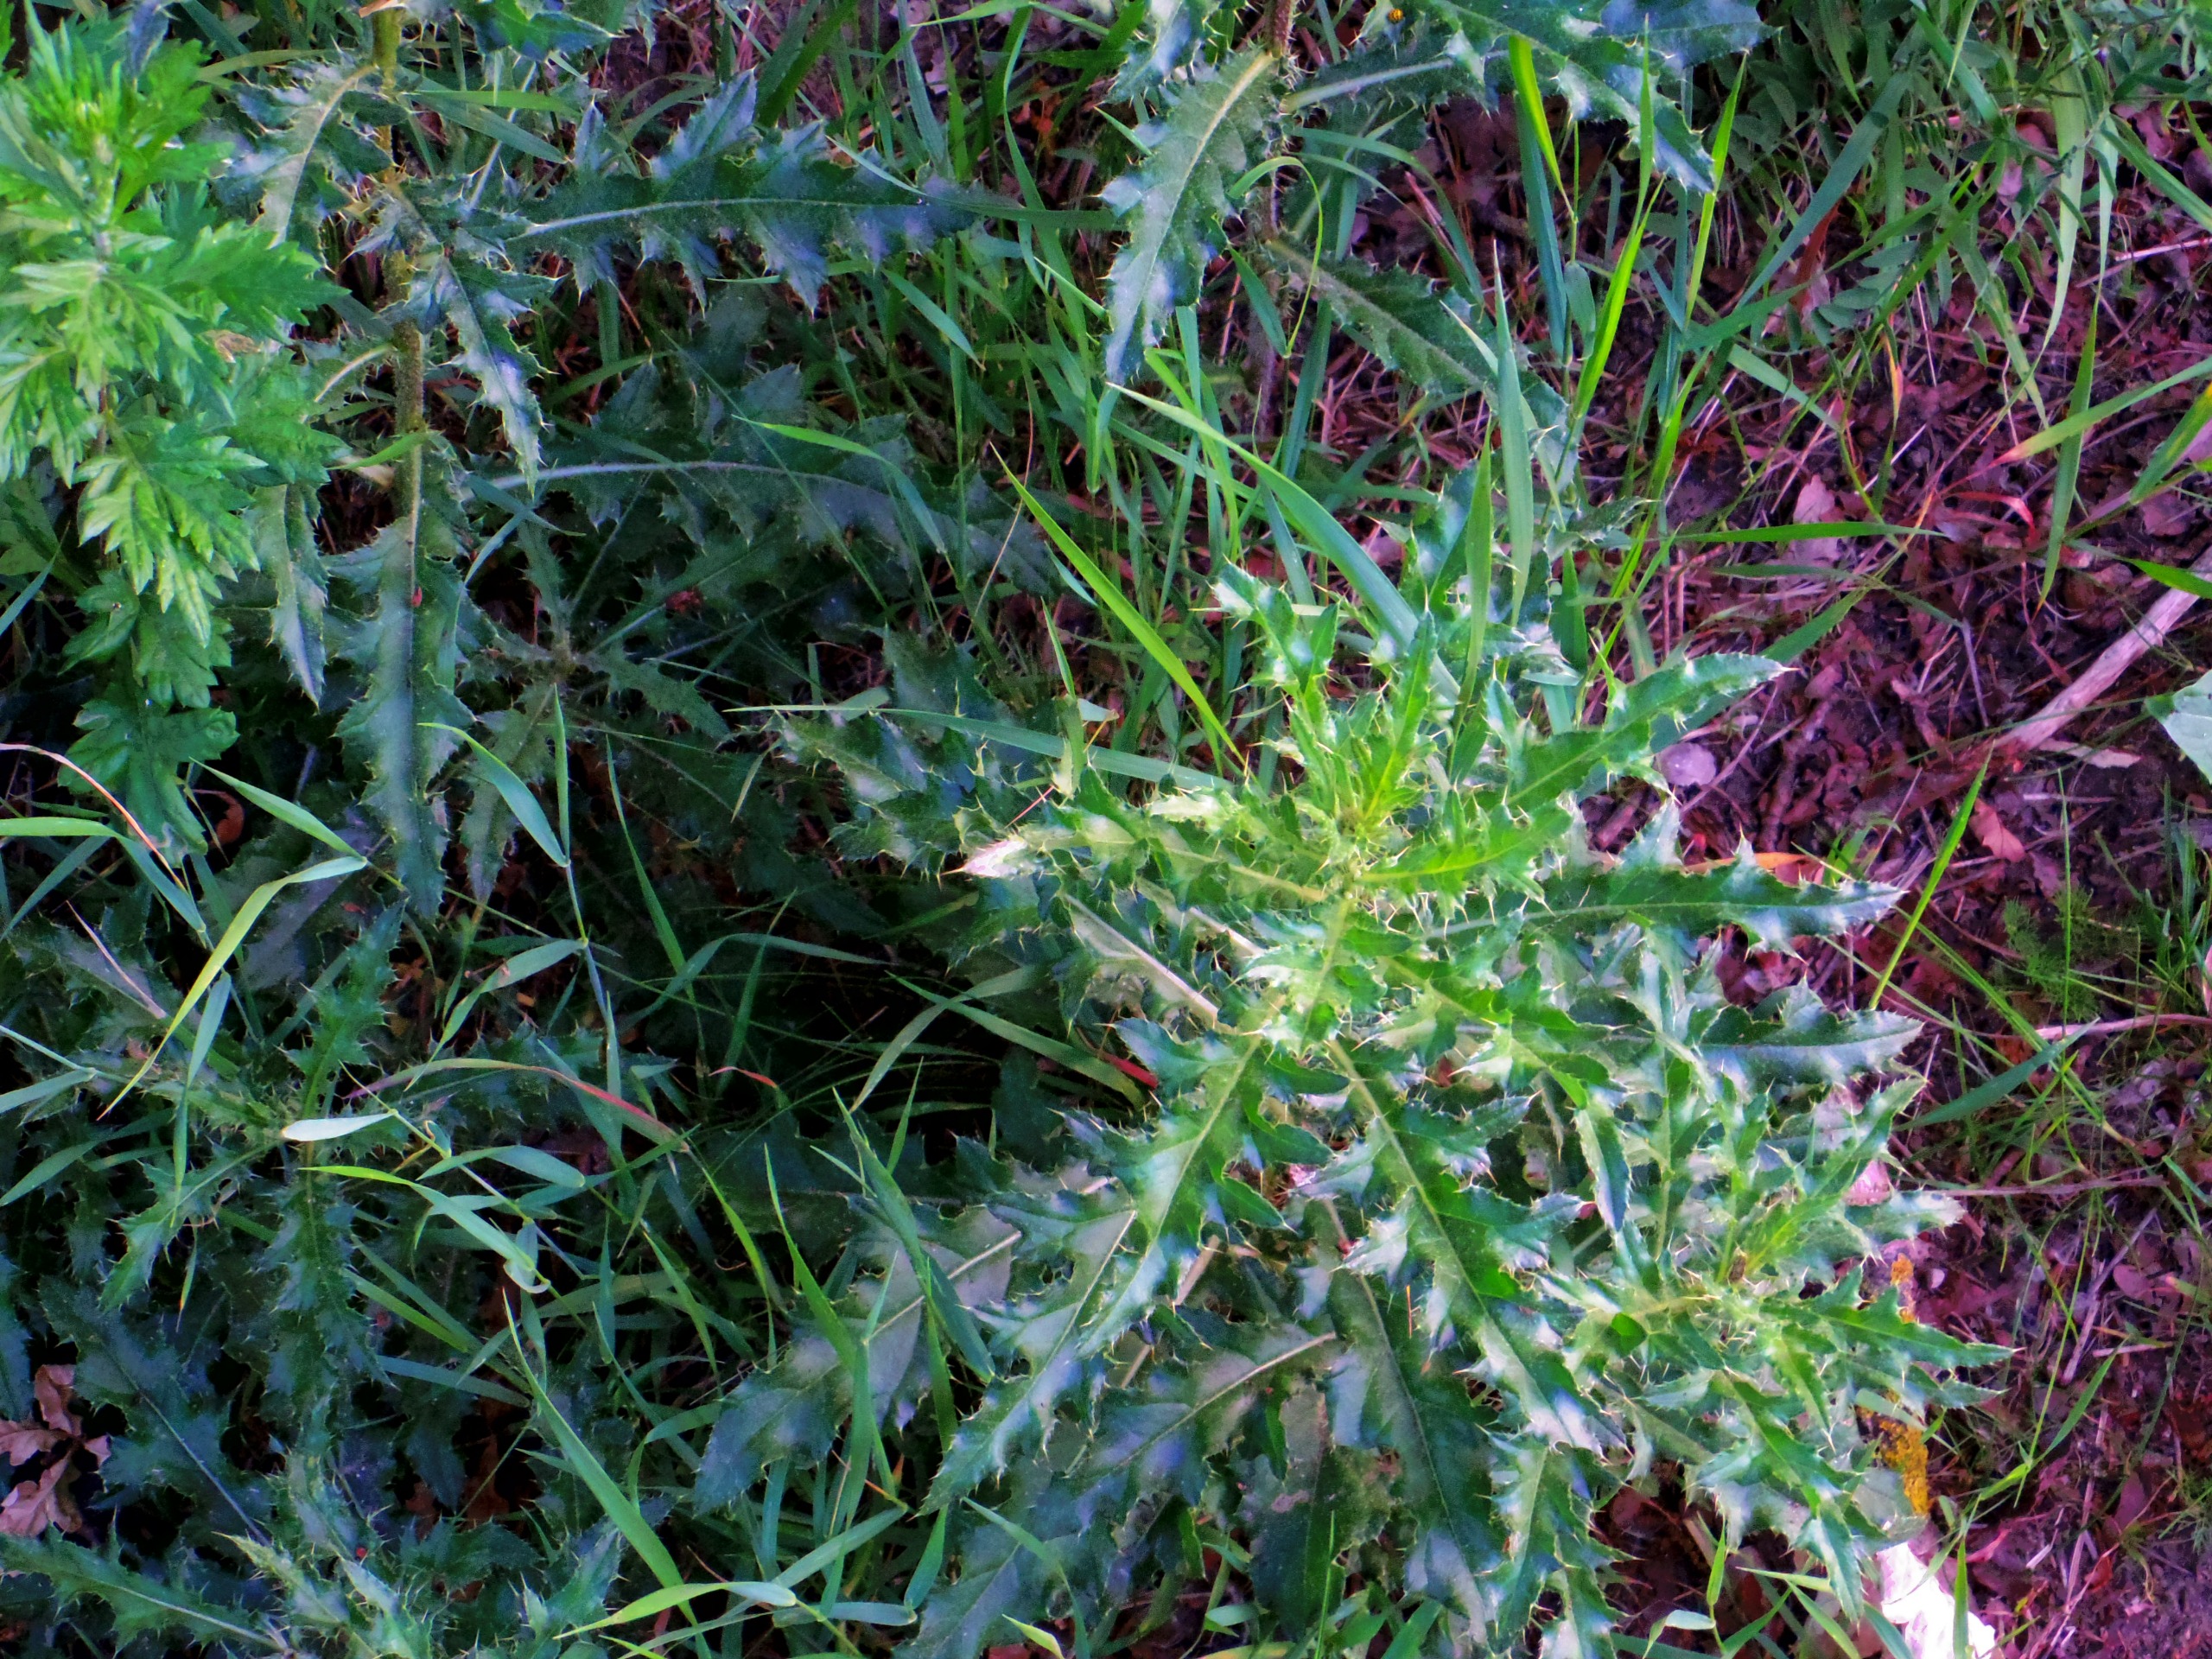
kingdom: Plantae
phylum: Tracheophyta
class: Magnoliopsida
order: Asterales
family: Asteraceae
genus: Cirsium
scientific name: Cirsium arvense
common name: Ager-tidsel
